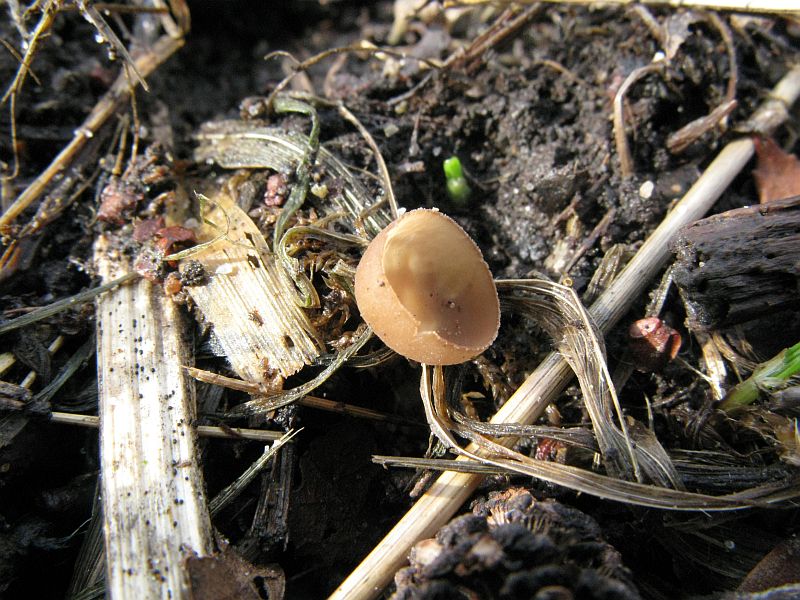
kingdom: Fungi
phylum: Ascomycota
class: Leotiomycetes
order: Helotiales
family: Sclerotiniaceae
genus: Ciboria
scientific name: Ciboria amentacea
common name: ellerakle-knoldskive
